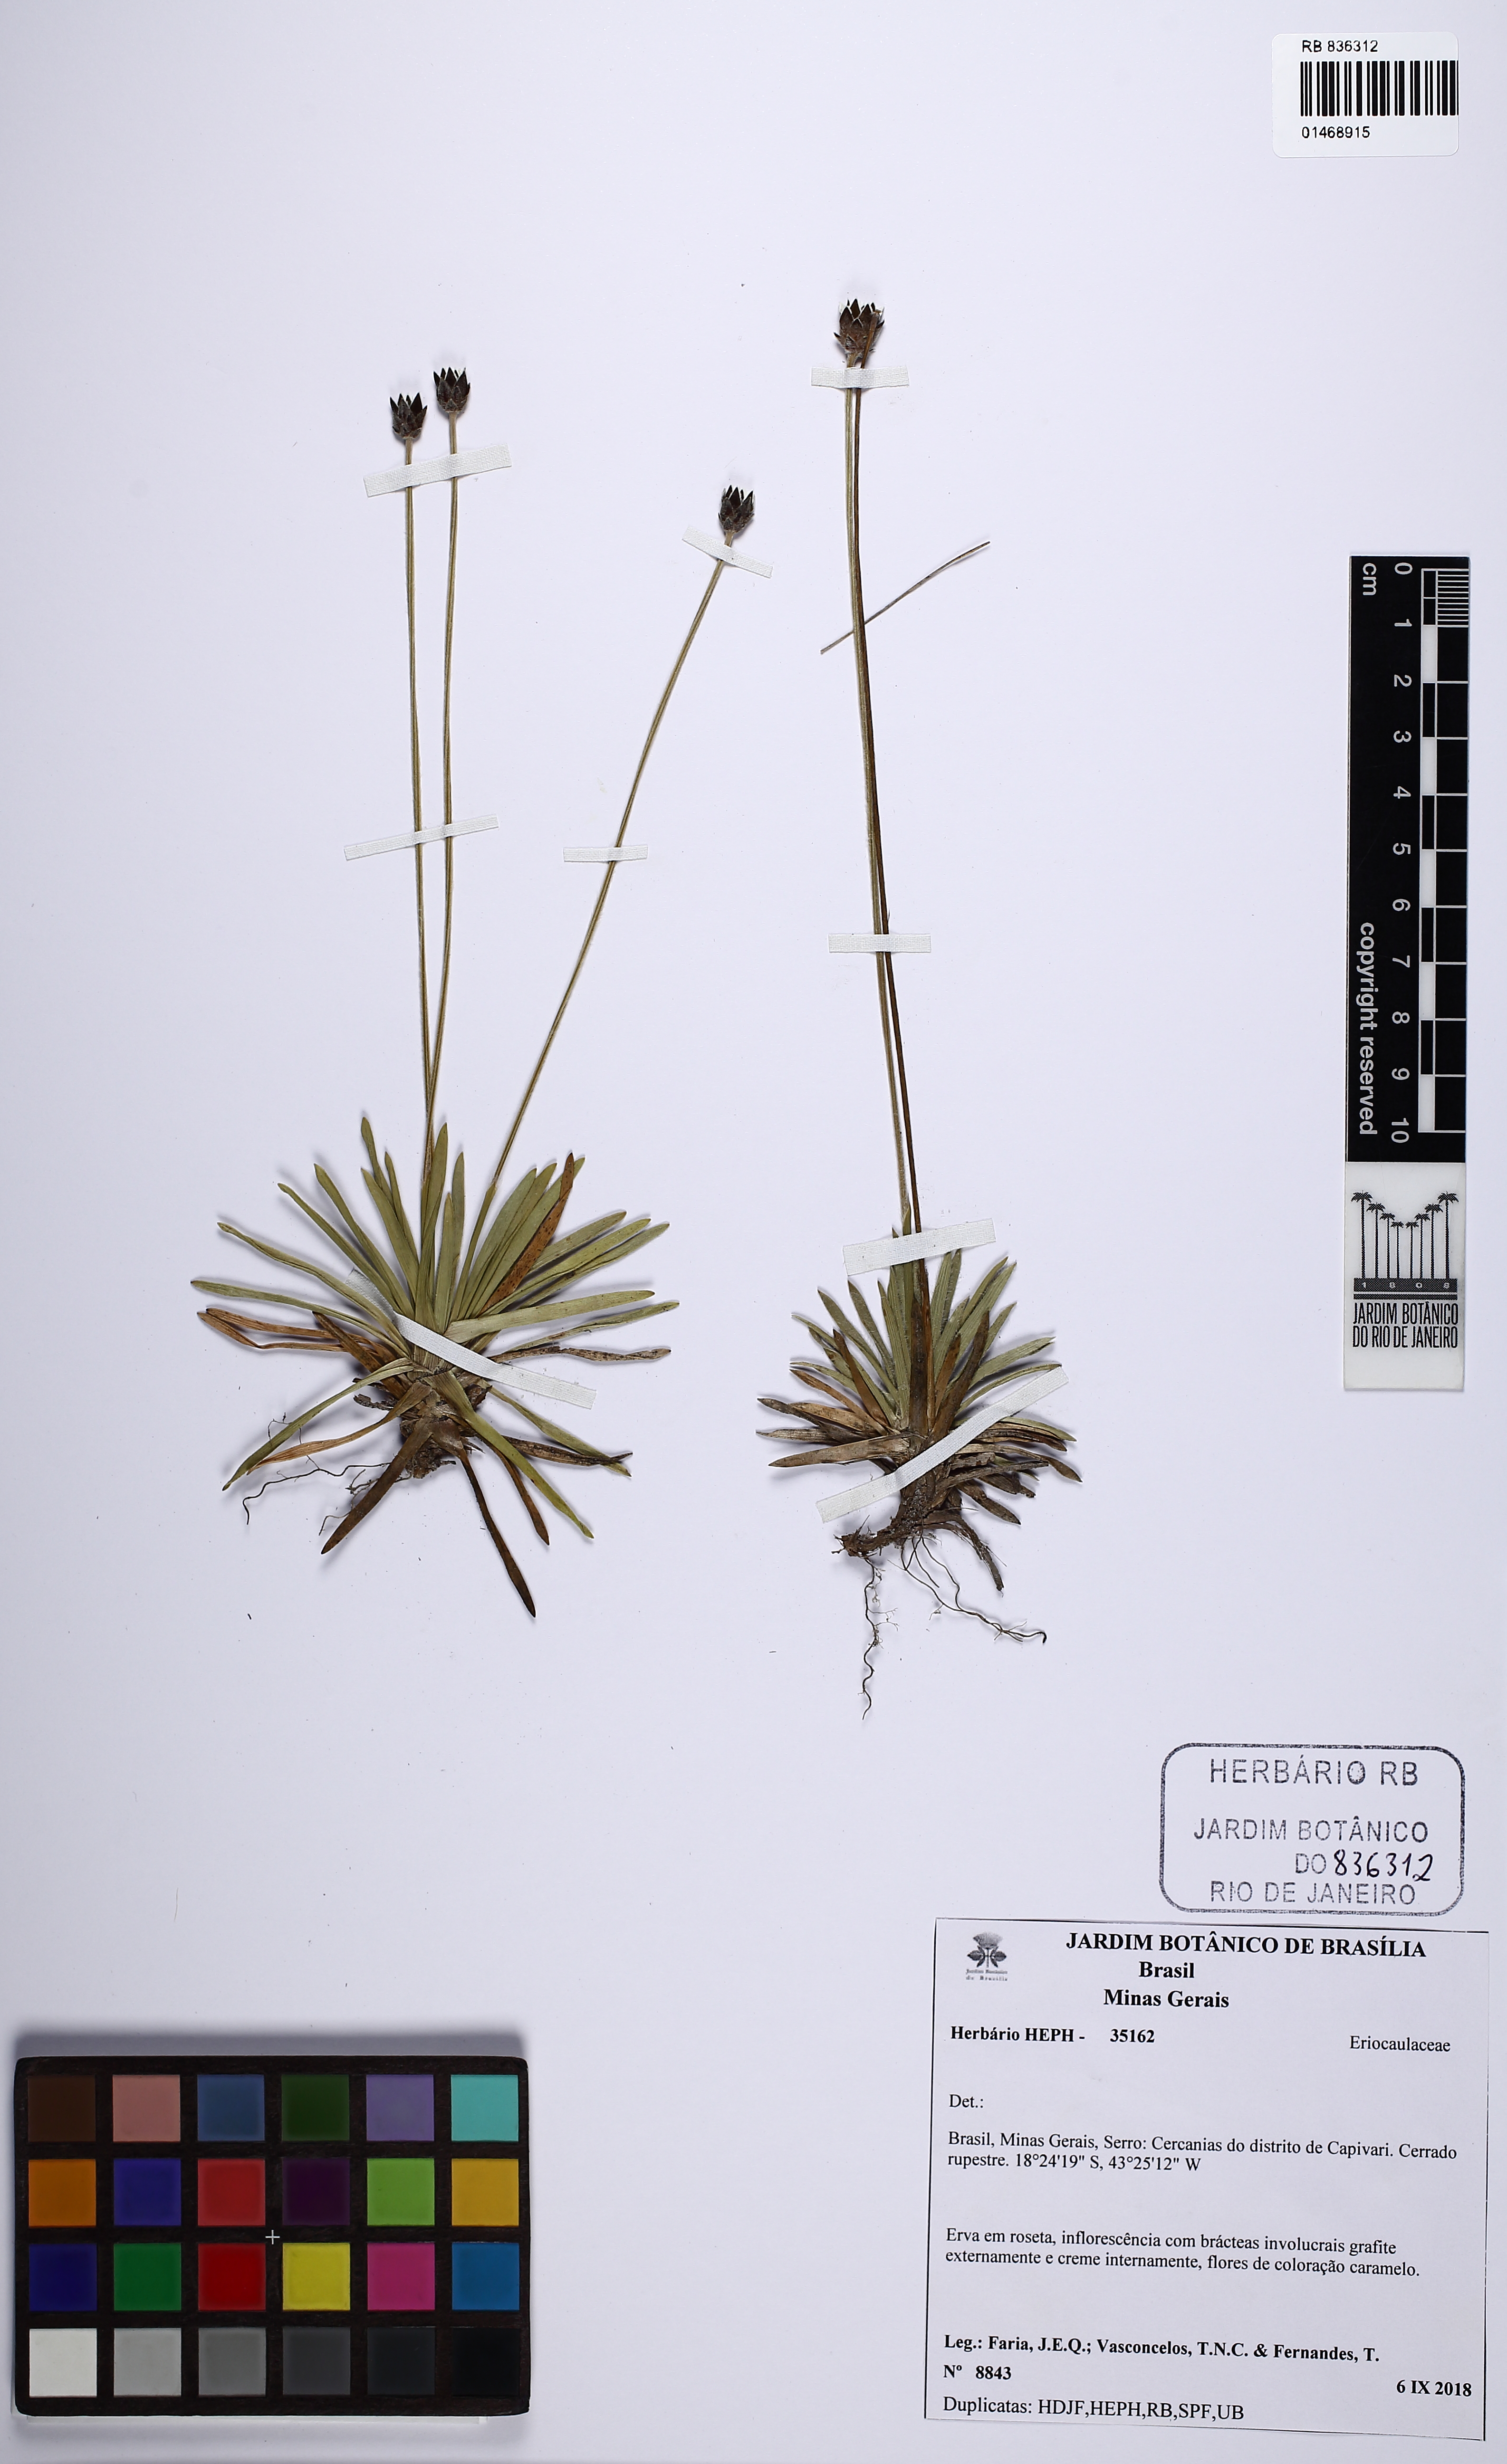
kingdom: Plantae
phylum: Tracheophyta
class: Liliopsida
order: Poales
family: Eriocaulaceae
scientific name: Eriocaulaceae
